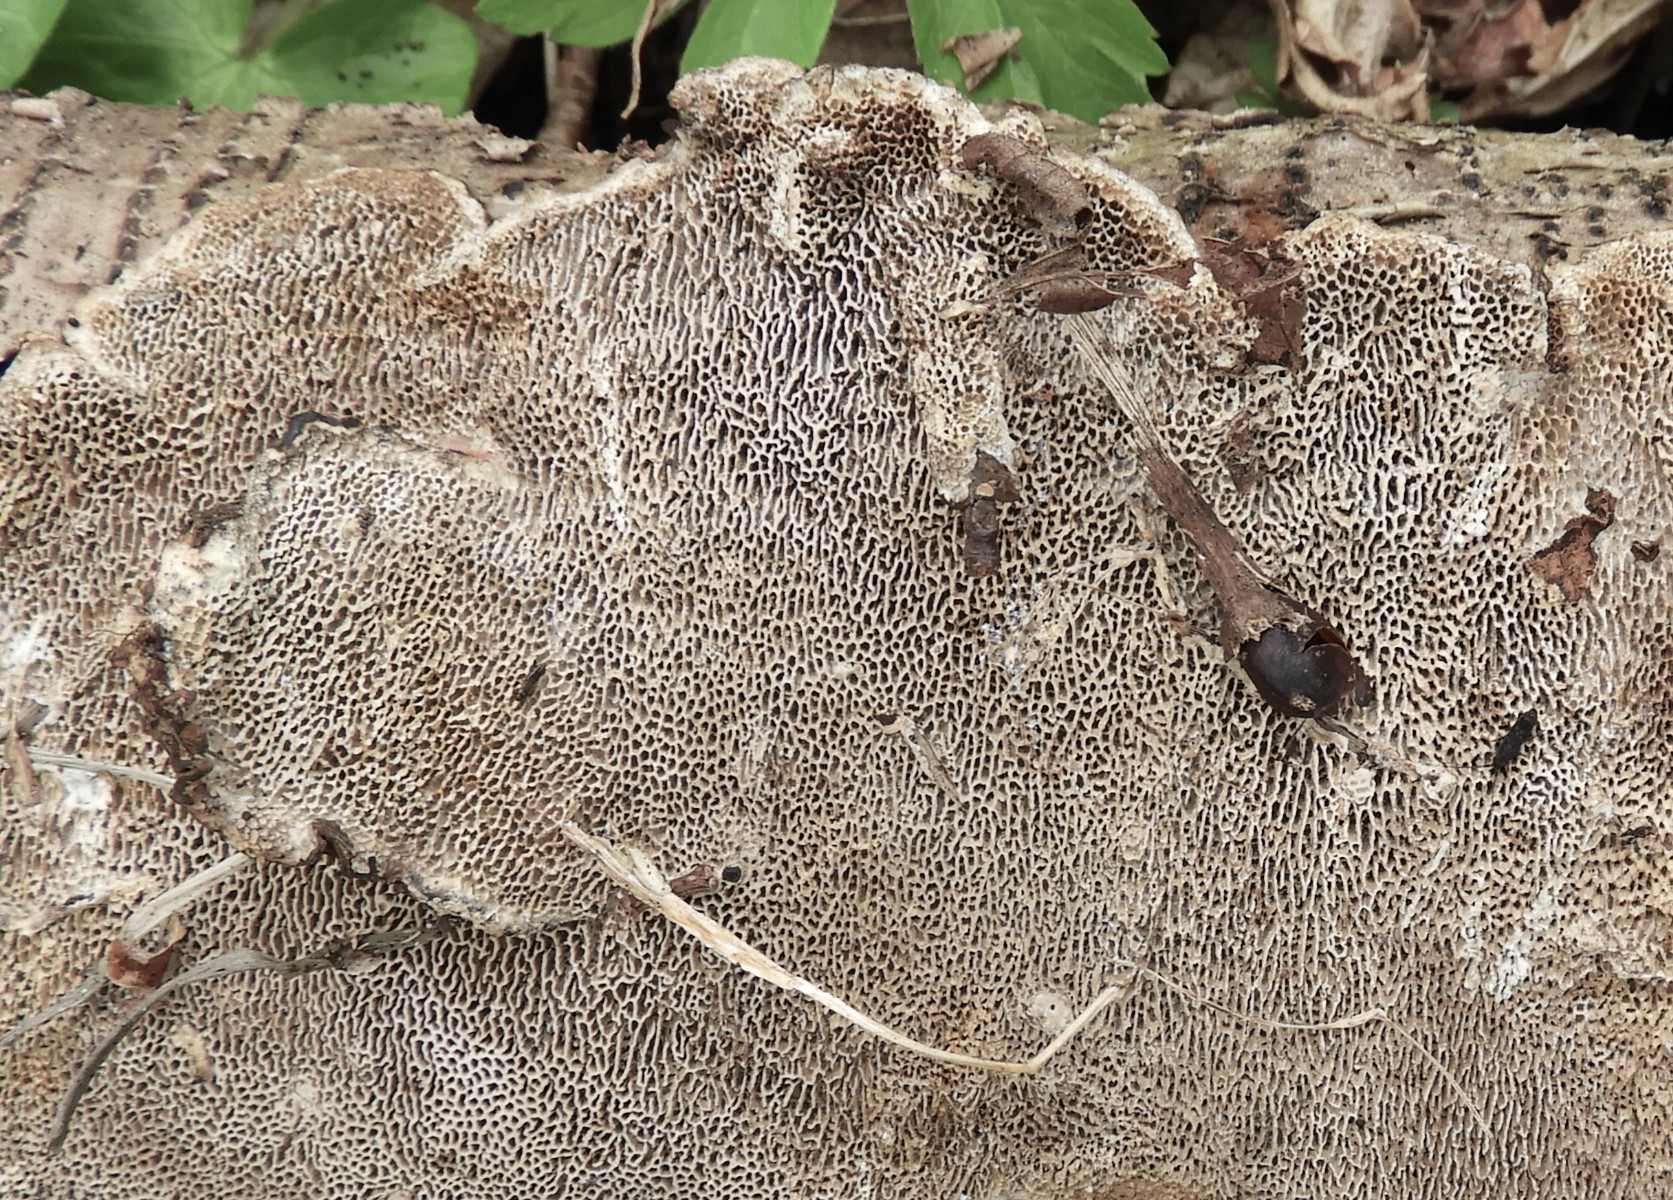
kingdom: Fungi
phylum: Basidiomycota
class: Agaricomycetes
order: Polyporales
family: Polyporaceae
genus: Podofomes
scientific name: Podofomes mollis
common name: blød begporesvamp
